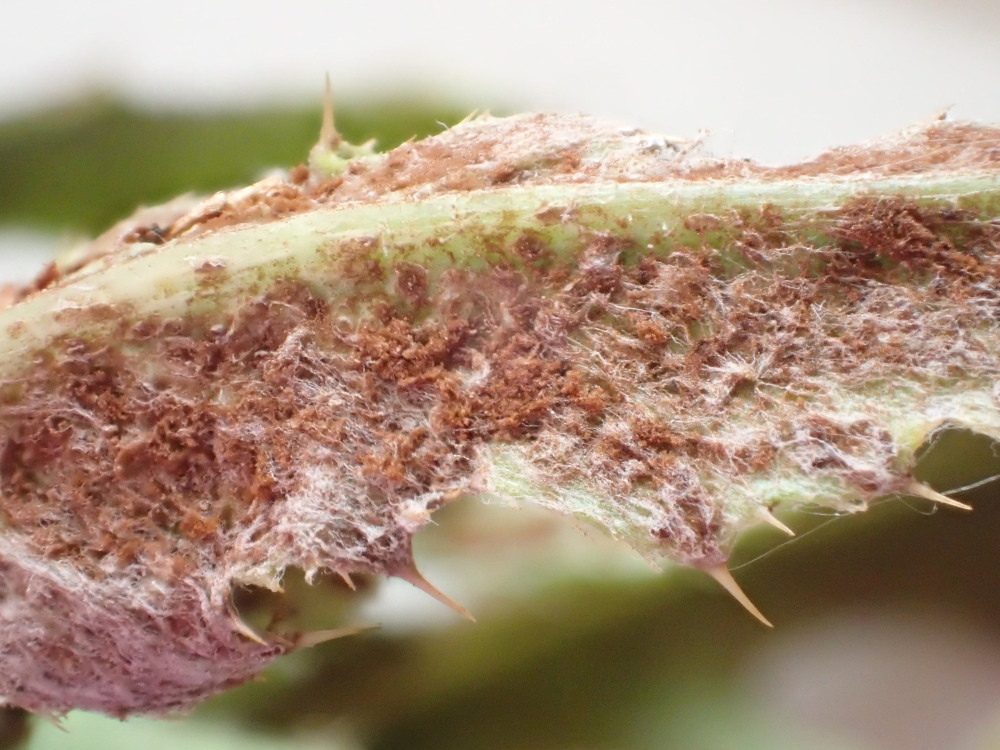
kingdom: Fungi
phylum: Basidiomycota
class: Pucciniomycetes
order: Pucciniales
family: Pucciniaceae
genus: Puccinia
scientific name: Puccinia suaveolens
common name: tidsel-tvecellerust
